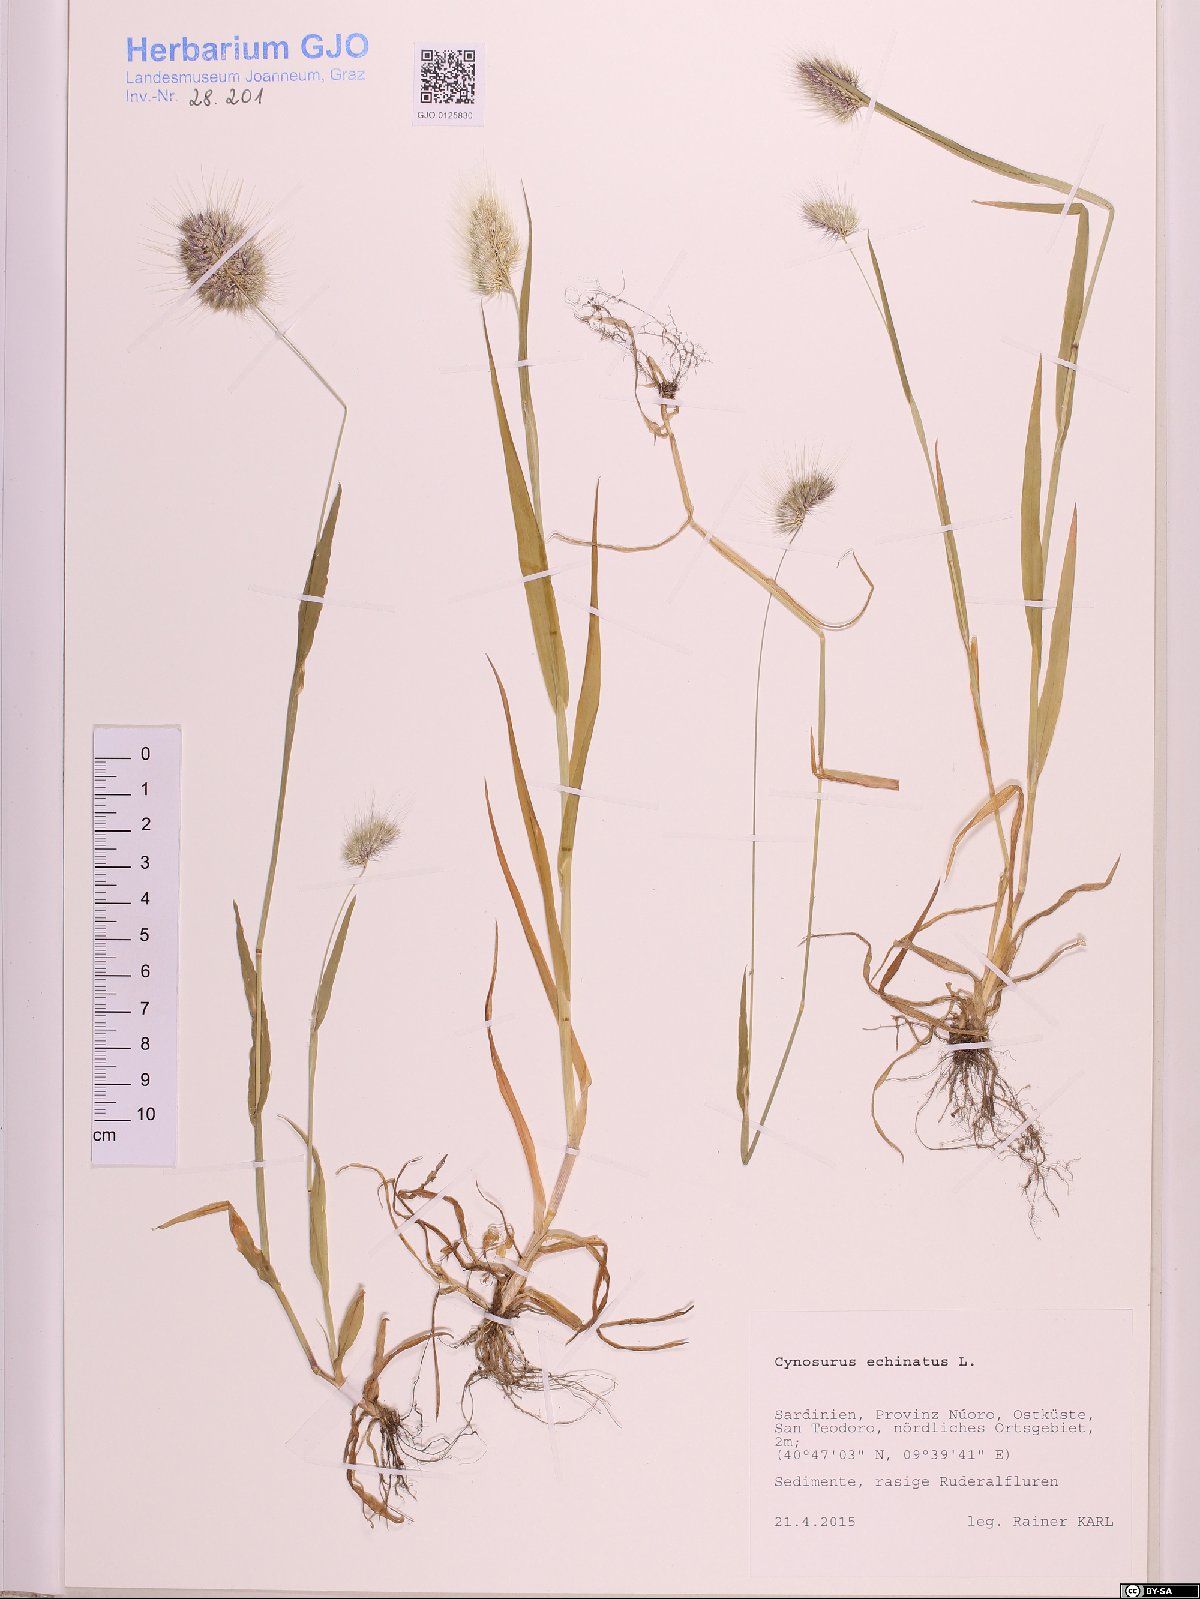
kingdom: Plantae
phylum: Tracheophyta
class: Liliopsida
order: Poales
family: Poaceae
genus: Cynosurus
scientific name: Cynosurus echinatus
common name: Rough dog's-tail
